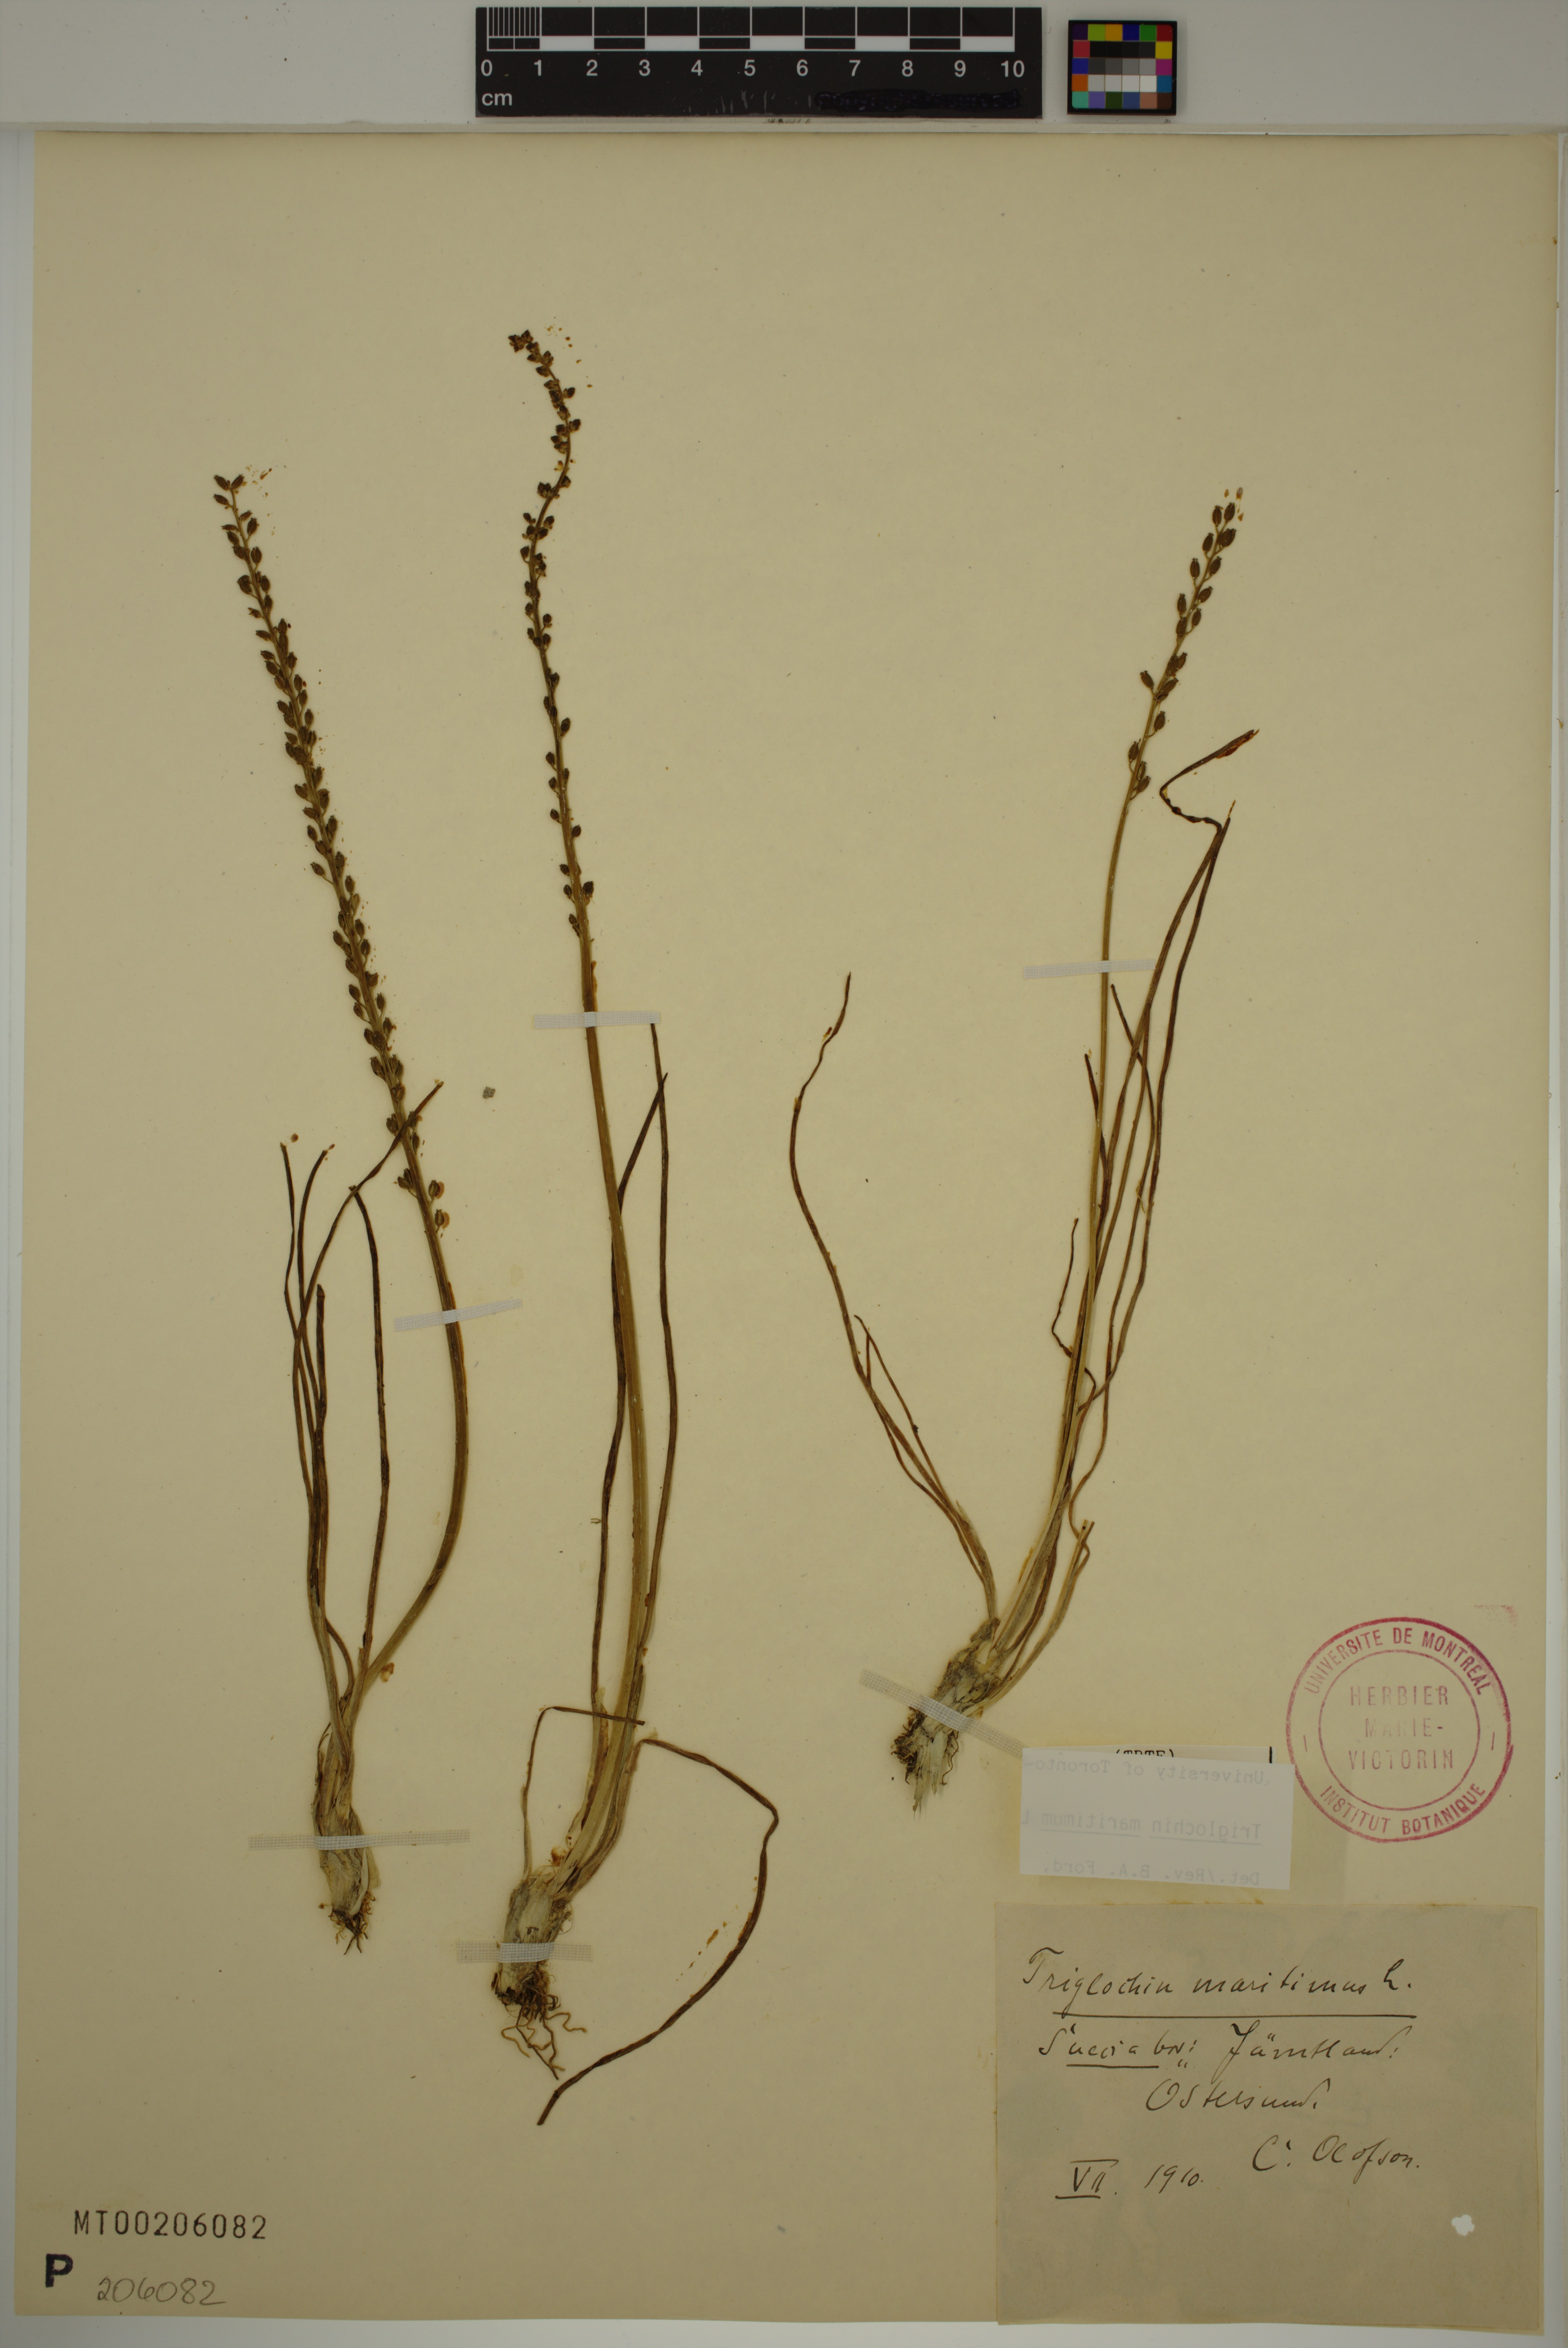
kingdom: Plantae
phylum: Tracheophyta
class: Liliopsida
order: Alismatales
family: Juncaginaceae
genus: Triglochin
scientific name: Triglochin maritima
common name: Sea arrowgrass
